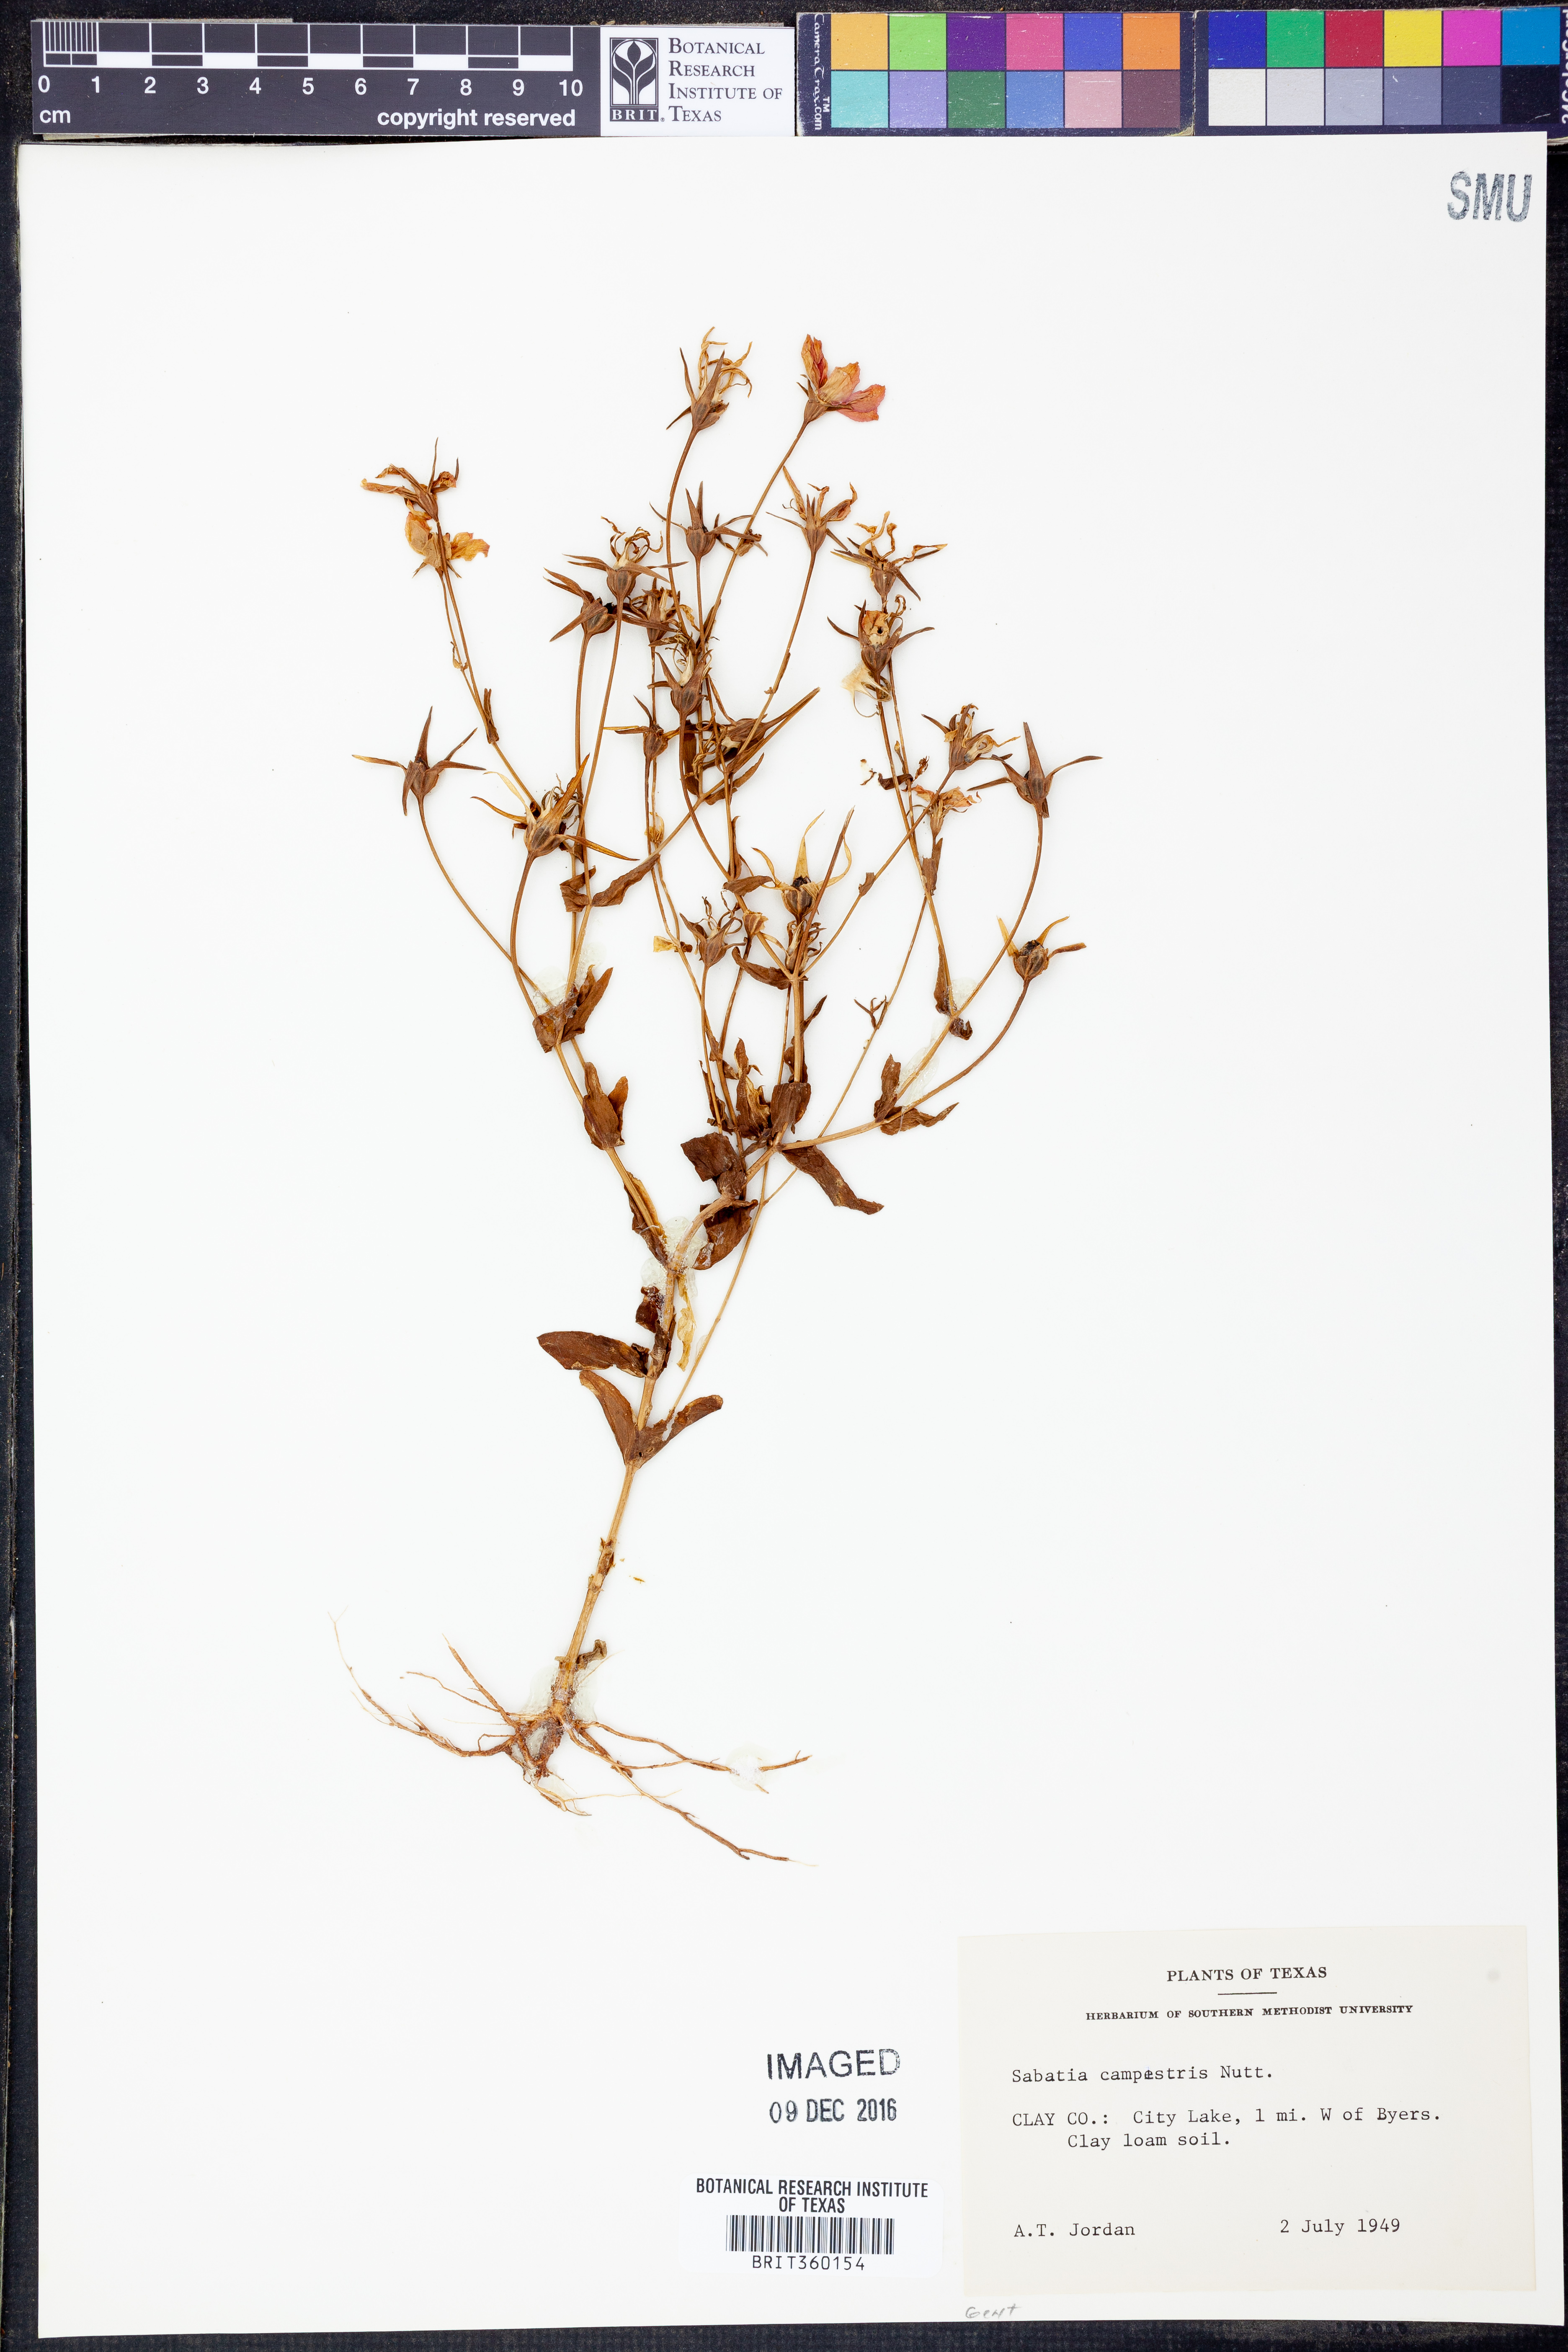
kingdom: Plantae
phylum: Tracheophyta
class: Magnoliopsida
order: Gentianales
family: Gentianaceae
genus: Sabatia
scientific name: Sabatia campestris
